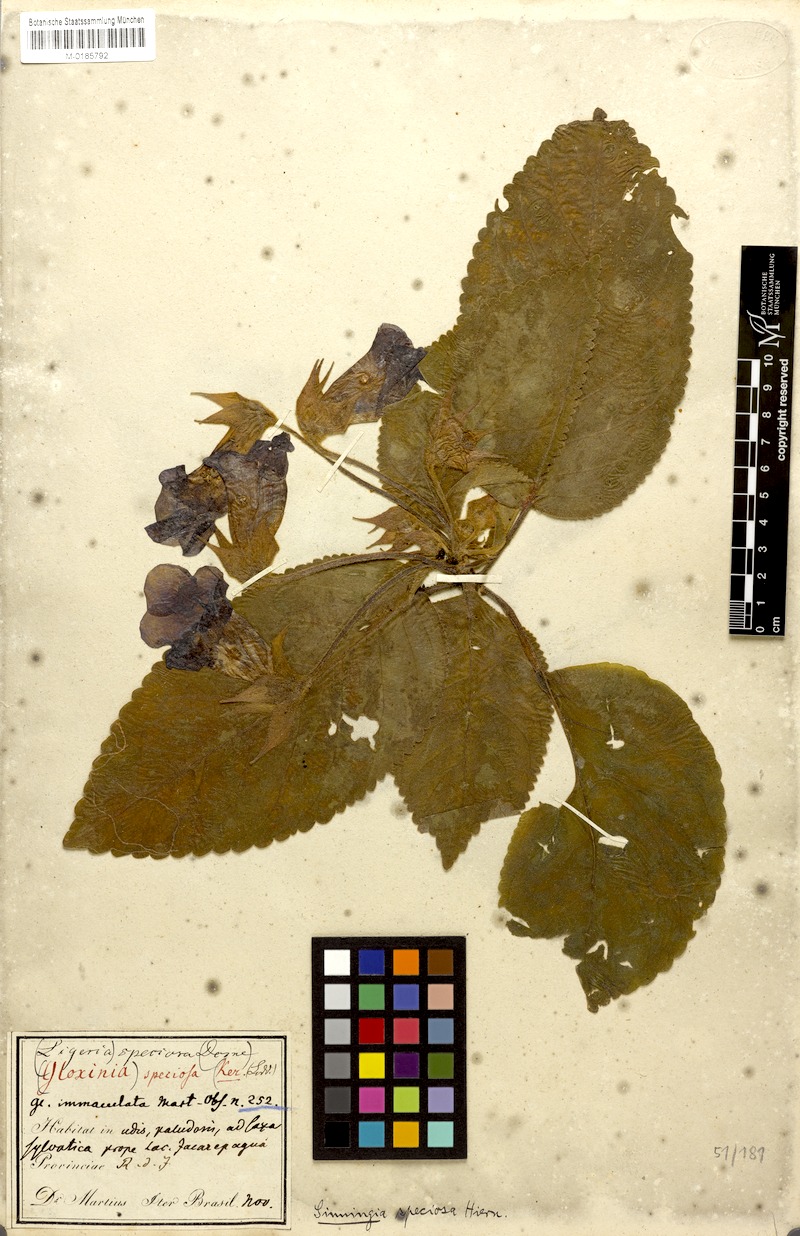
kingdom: Plantae
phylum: Tracheophyta
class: Magnoliopsida
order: Lamiales
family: Gesneriaceae
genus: Sinningia
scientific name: Sinningia speciosa
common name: Brazilian gloxinia
